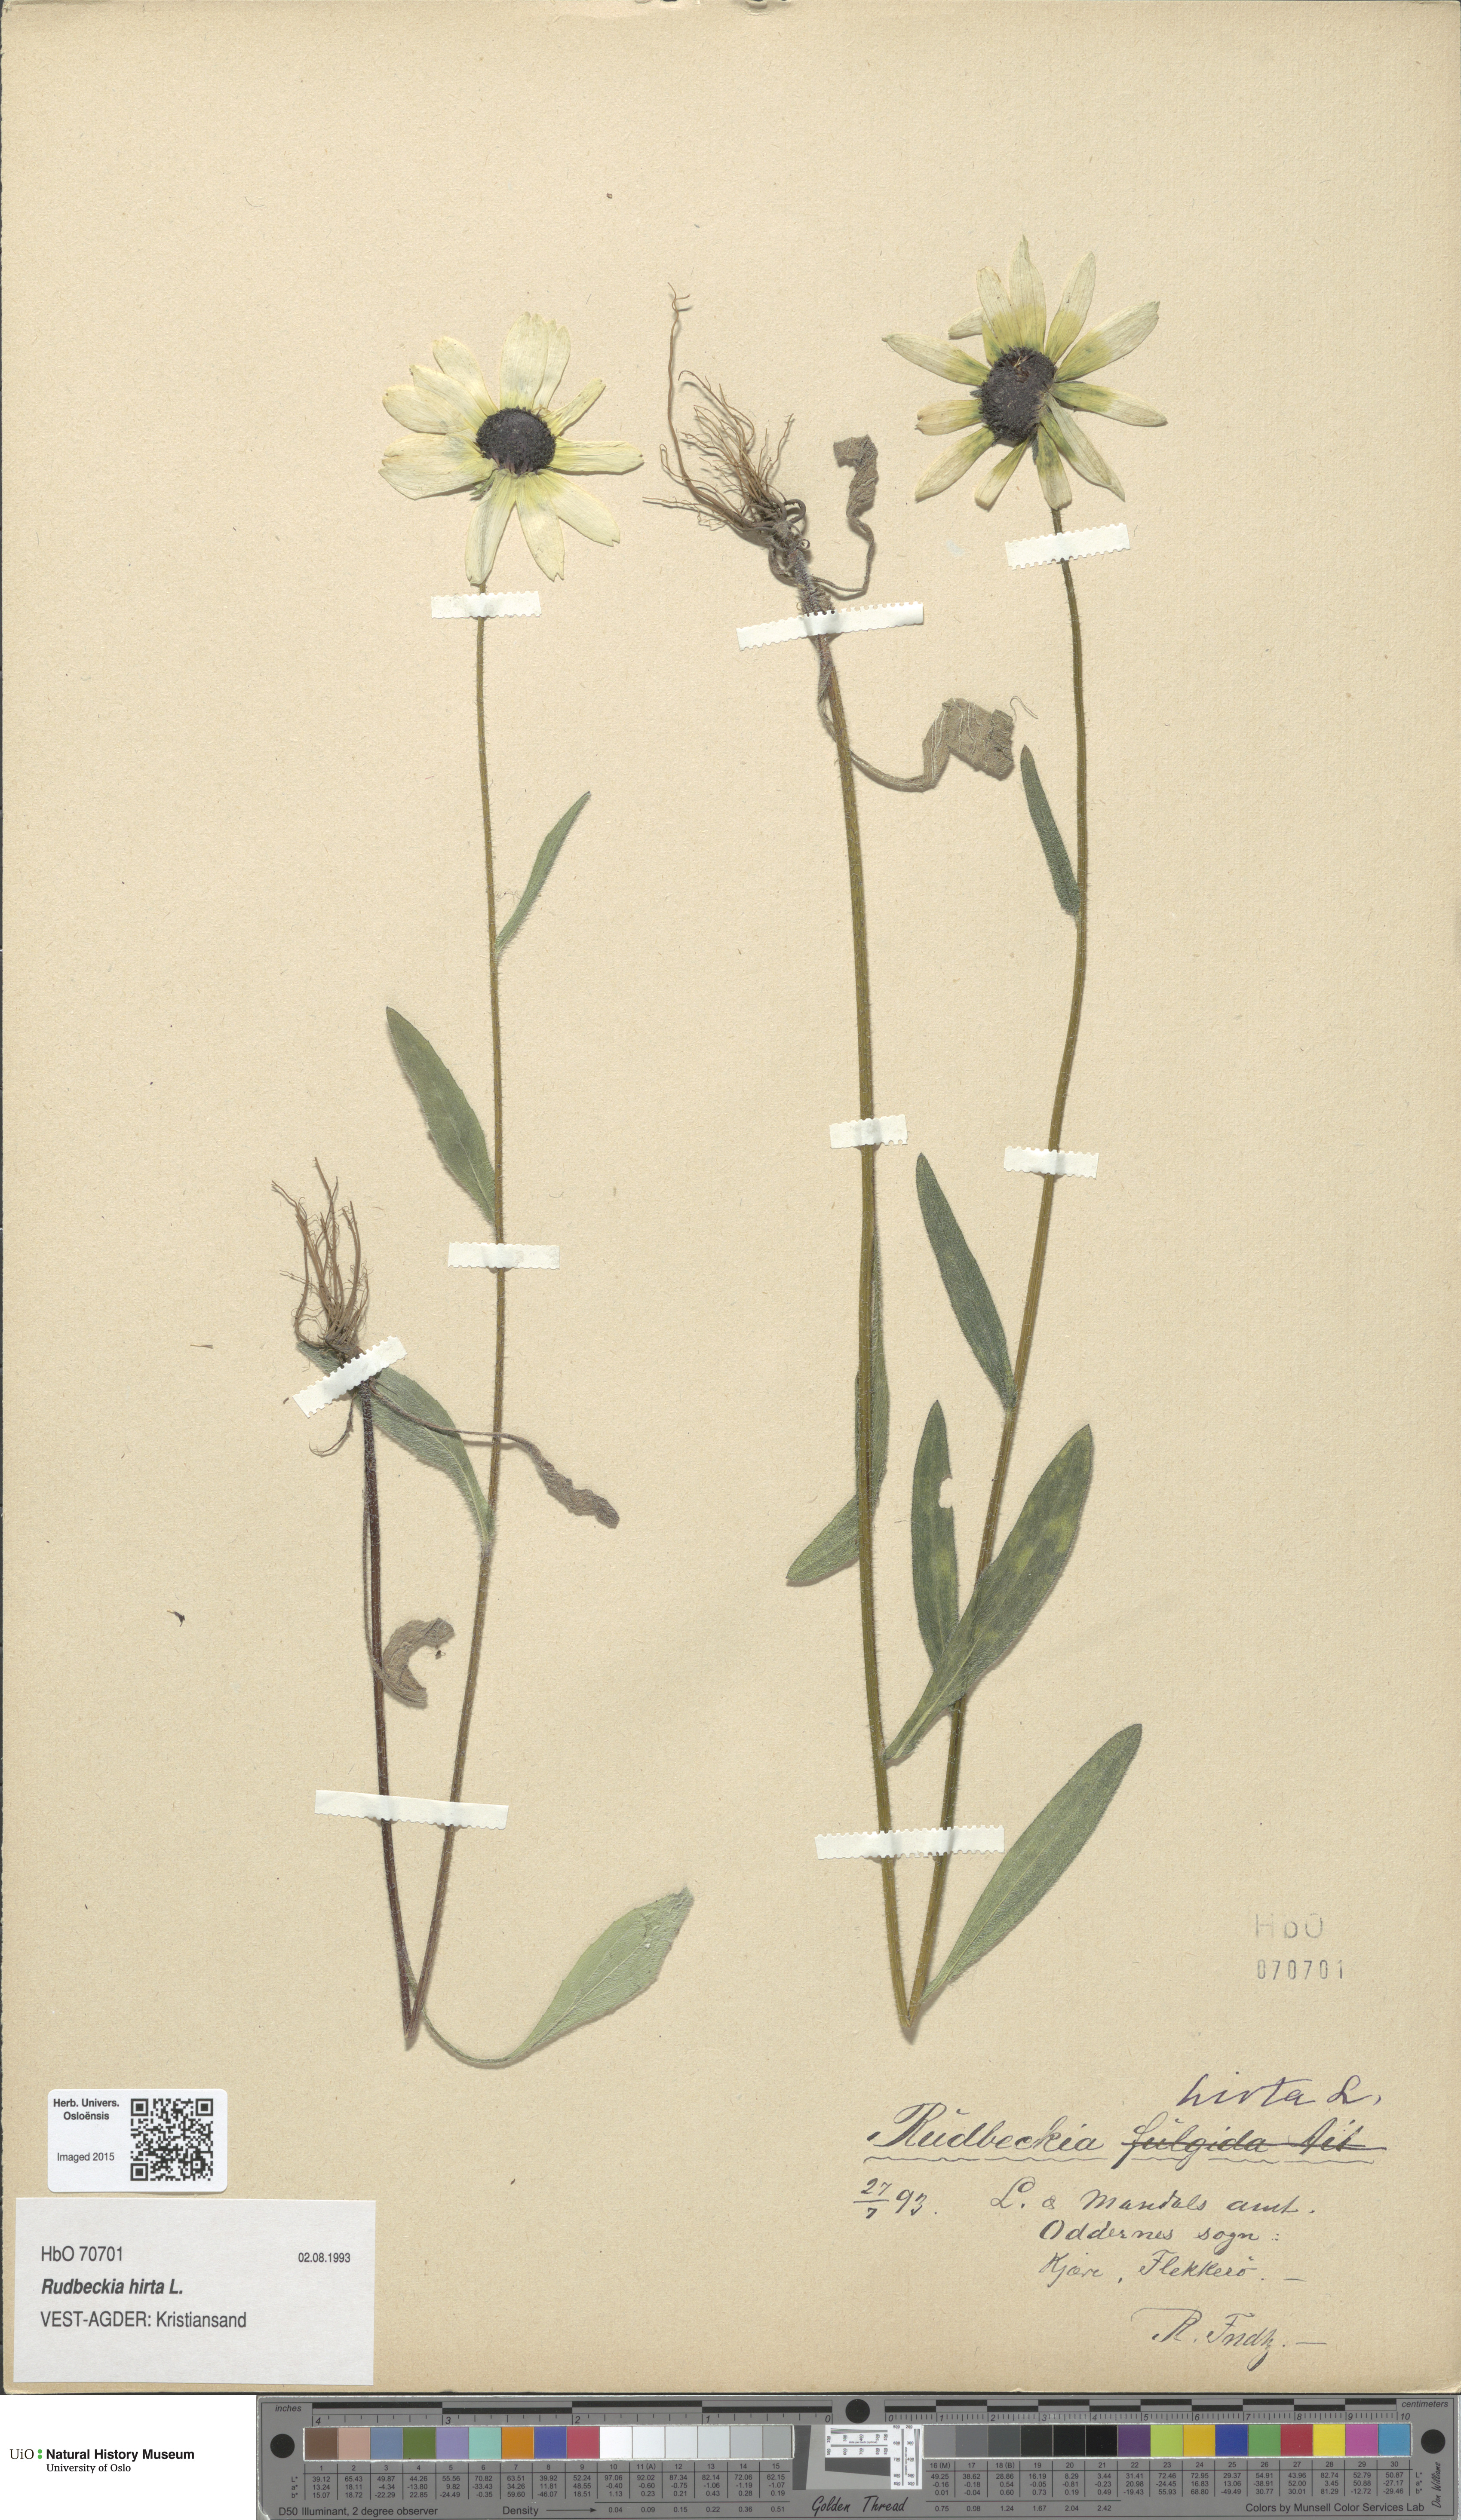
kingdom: Plantae
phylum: Tracheophyta
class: Magnoliopsida
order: Asterales
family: Asteraceae
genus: Rudbeckia
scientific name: Rudbeckia hirta
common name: Black-eyed-susan
